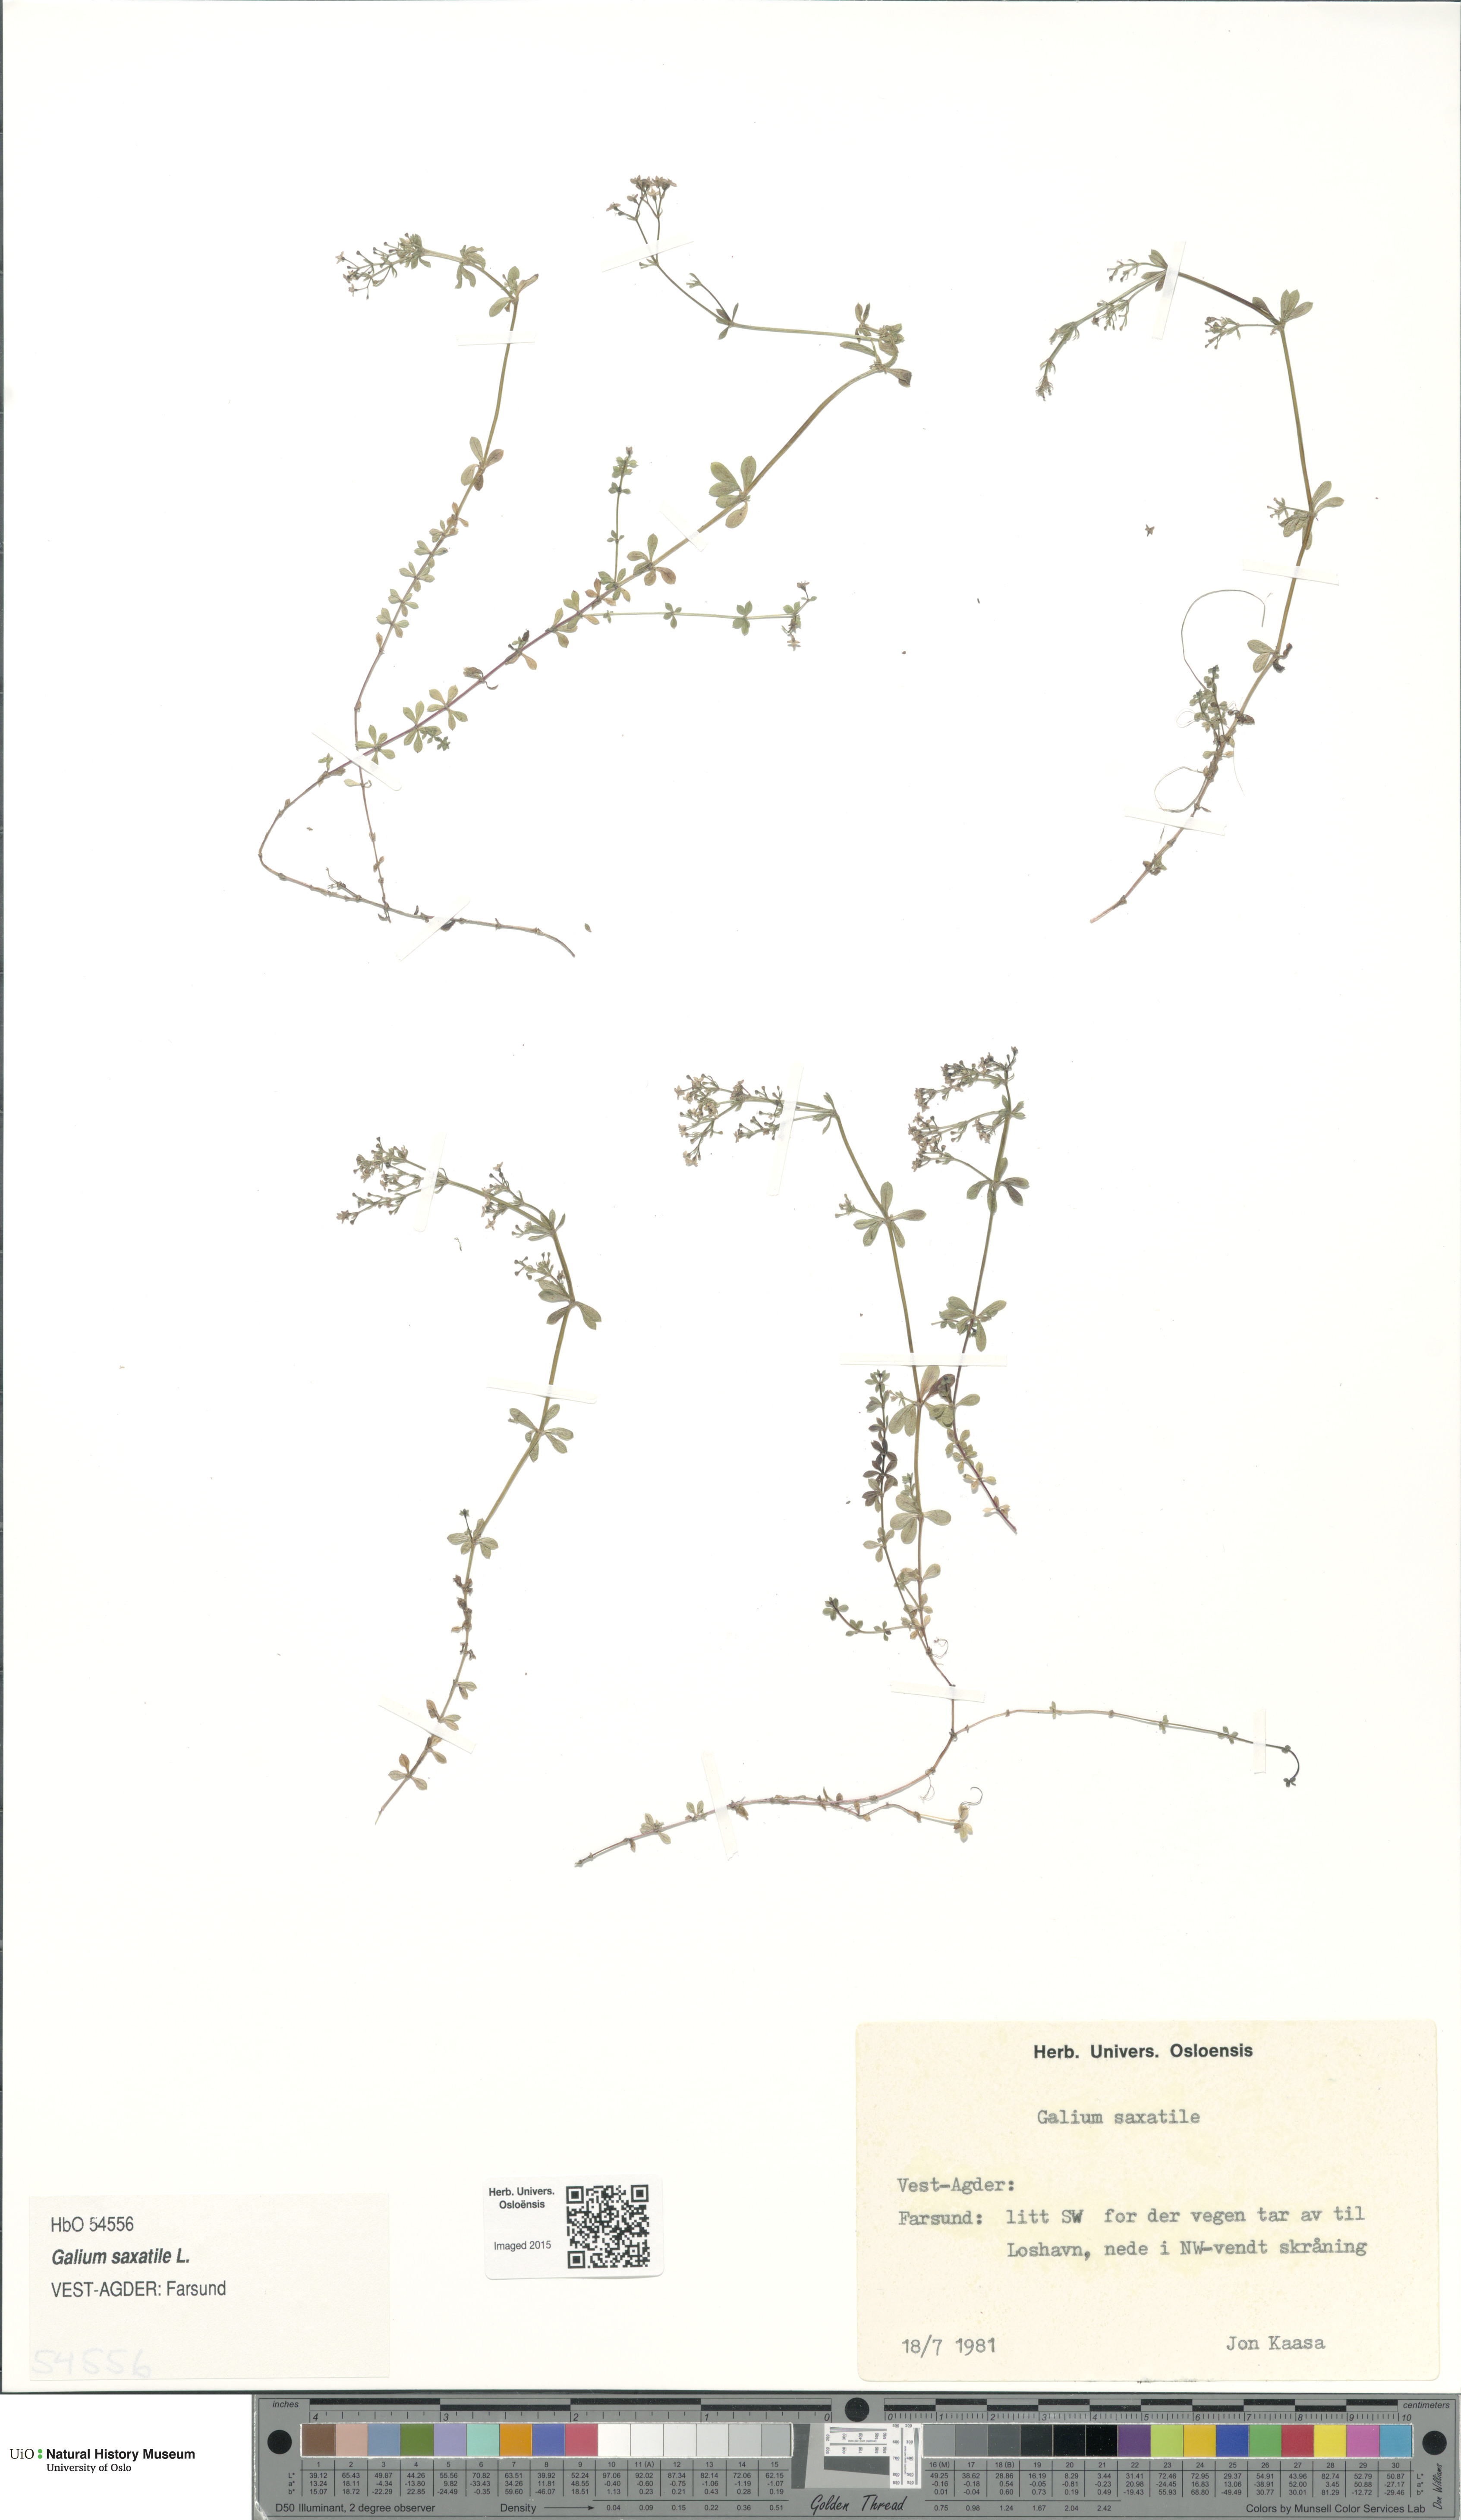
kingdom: Plantae
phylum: Tracheophyta
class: Magnoliopsida
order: Gentianales
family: Rubiaceae
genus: Galium
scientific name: Galium saxatile
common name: Heath bedstraw
